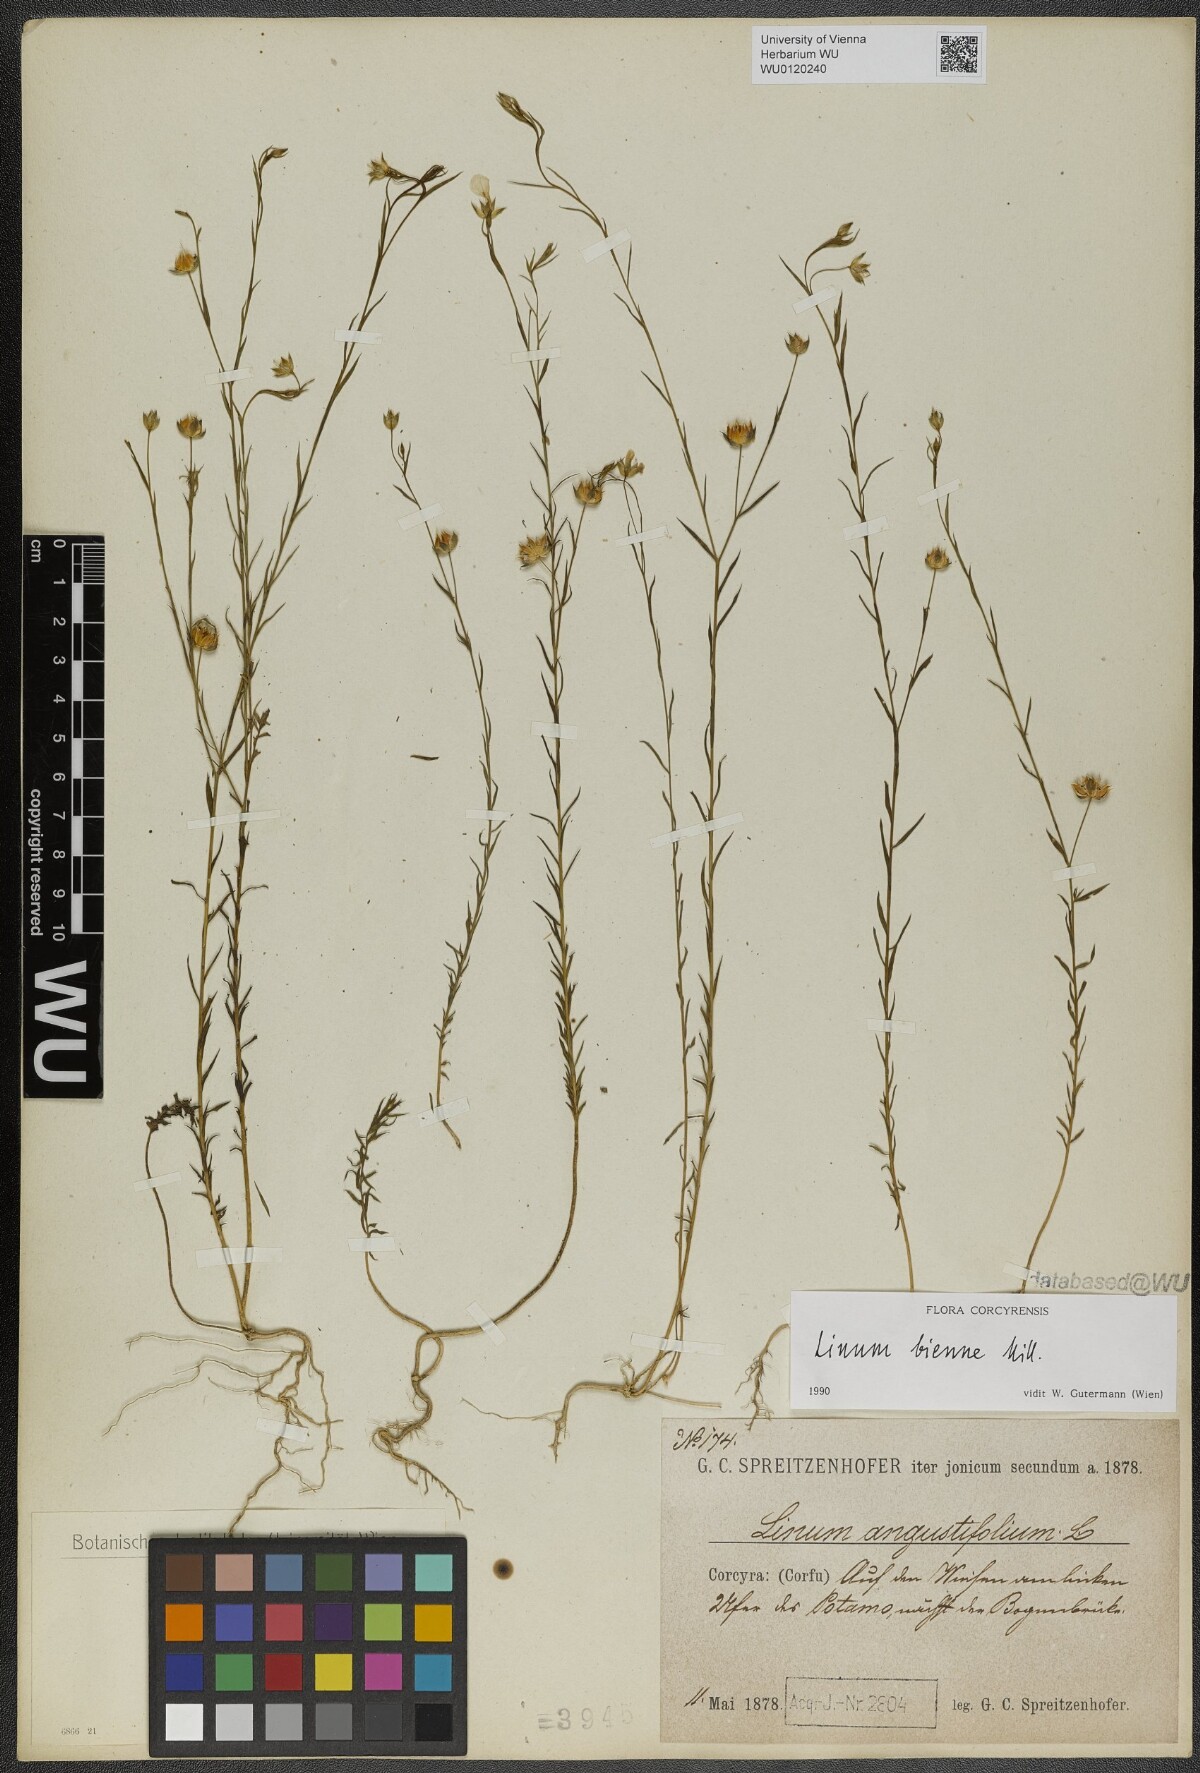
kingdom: Plantae
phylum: Tracheophyta
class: Magnoliopsida
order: Malpighiales
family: Linaceae
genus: Linum
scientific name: Linum bienne
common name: Pale flax
